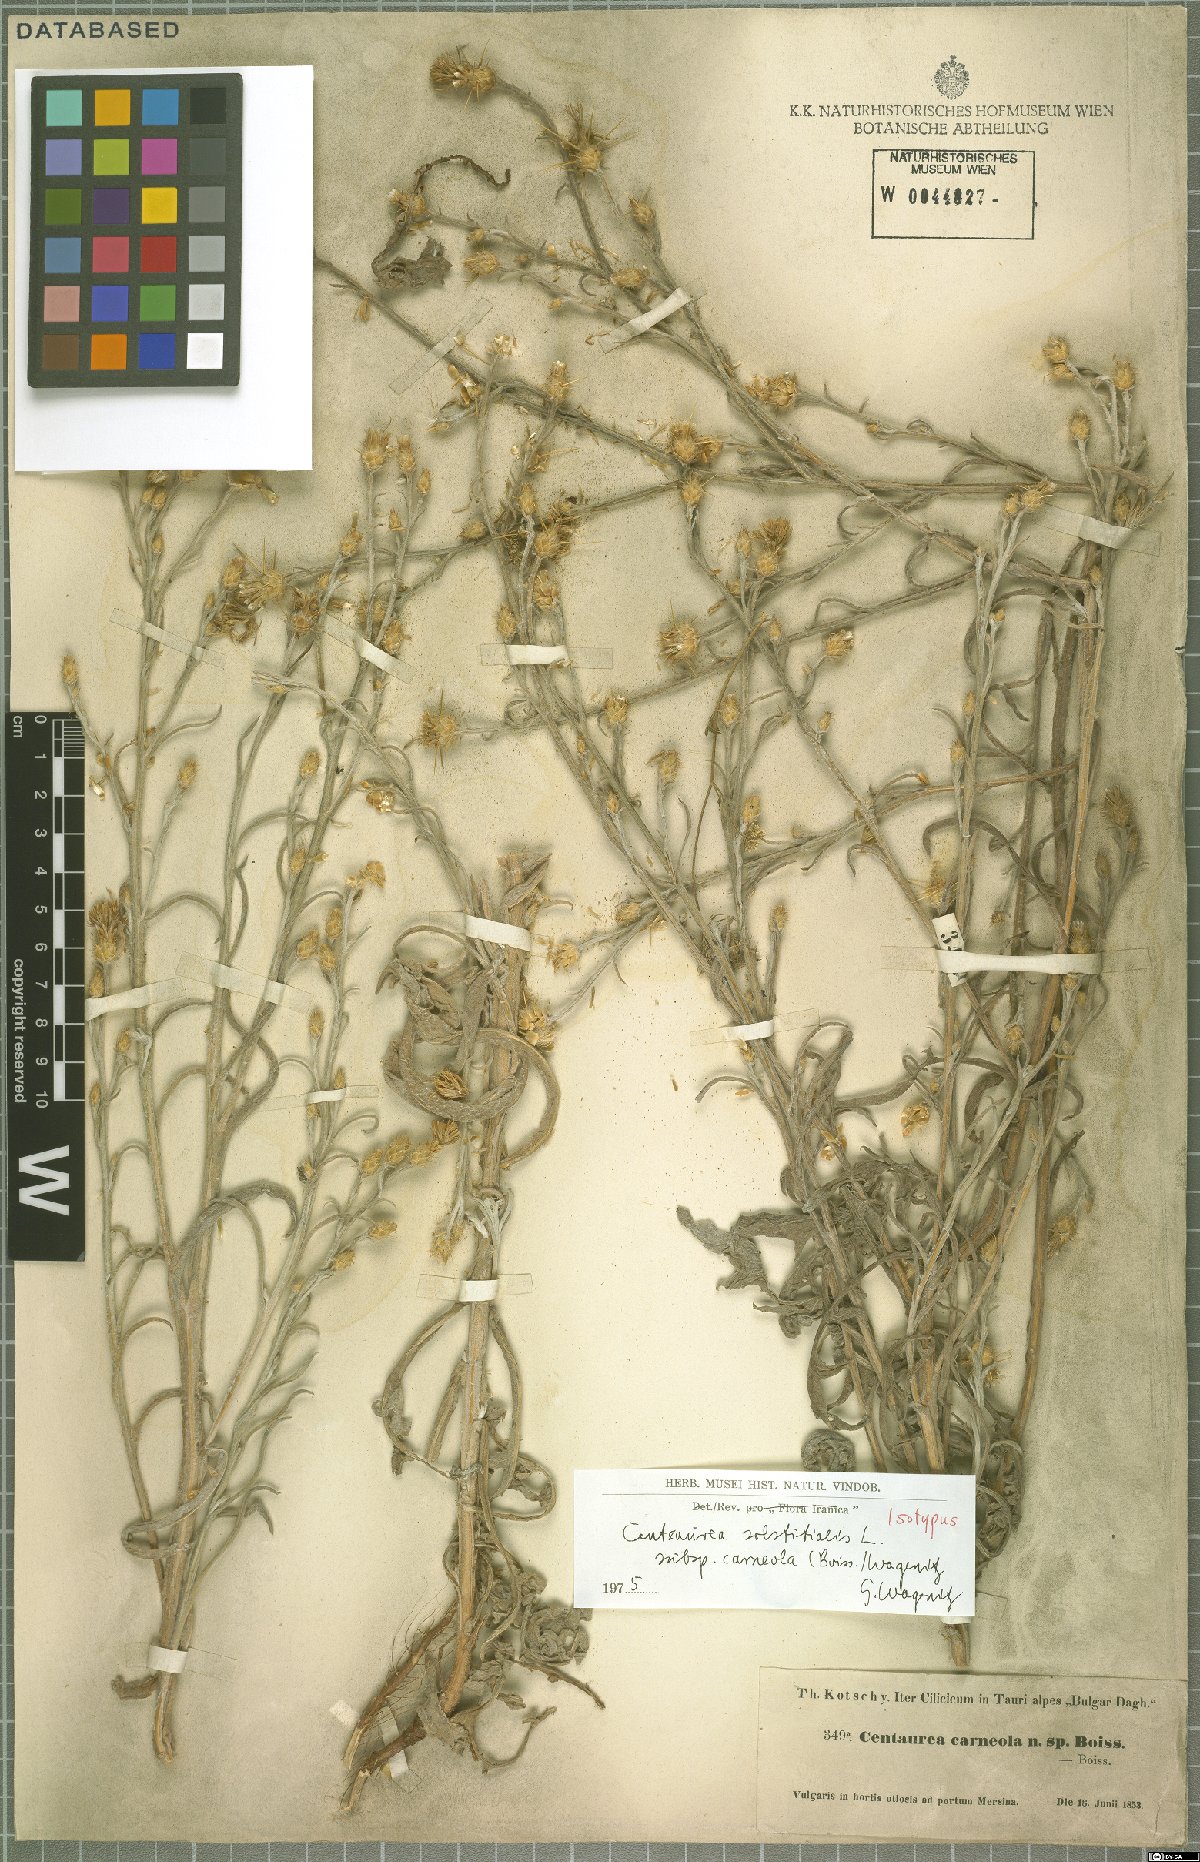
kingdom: Plantae
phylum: Tracheophyta
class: Magnoliopsida
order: Asterales
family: Asteraceae
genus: Centaurea
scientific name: Centaurea solstitialis
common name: Yellow star-thistle
